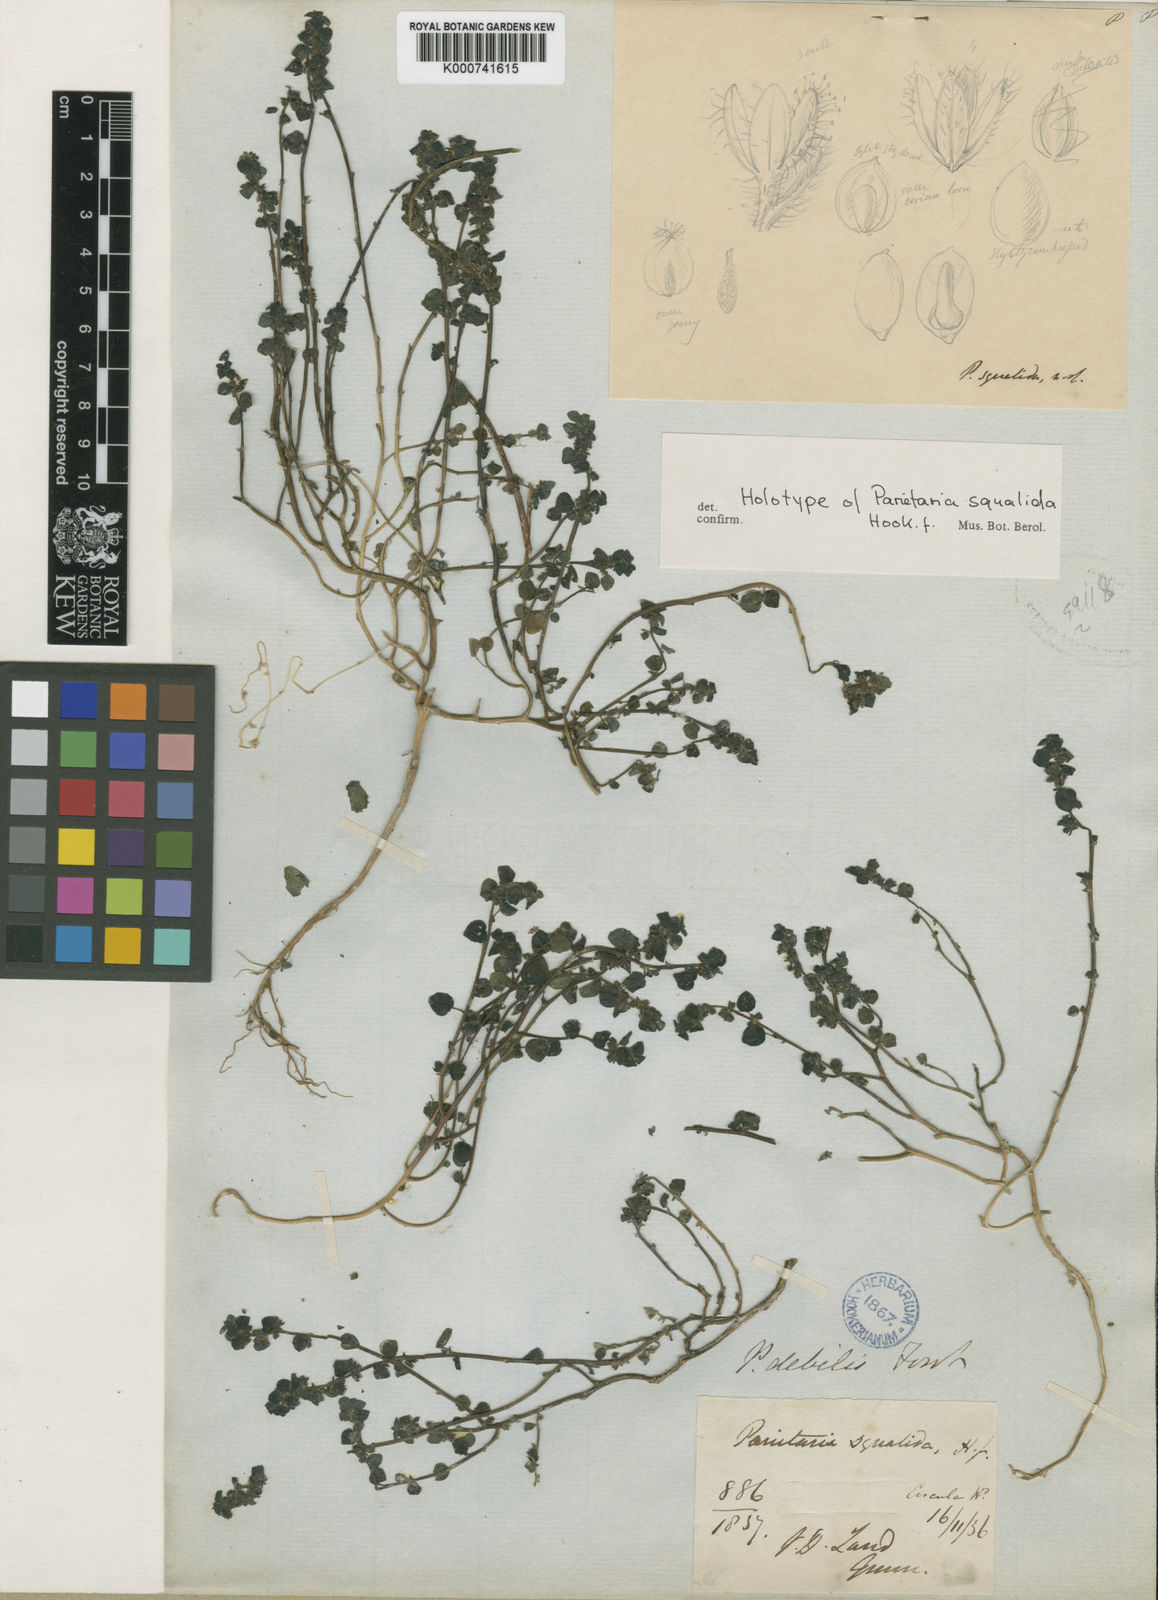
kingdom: Plantae
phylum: Tracheophyta
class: Magnoliopsida
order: Rosales
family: Urticaceae
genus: Parietaria
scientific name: Parietaria cardiostegia
